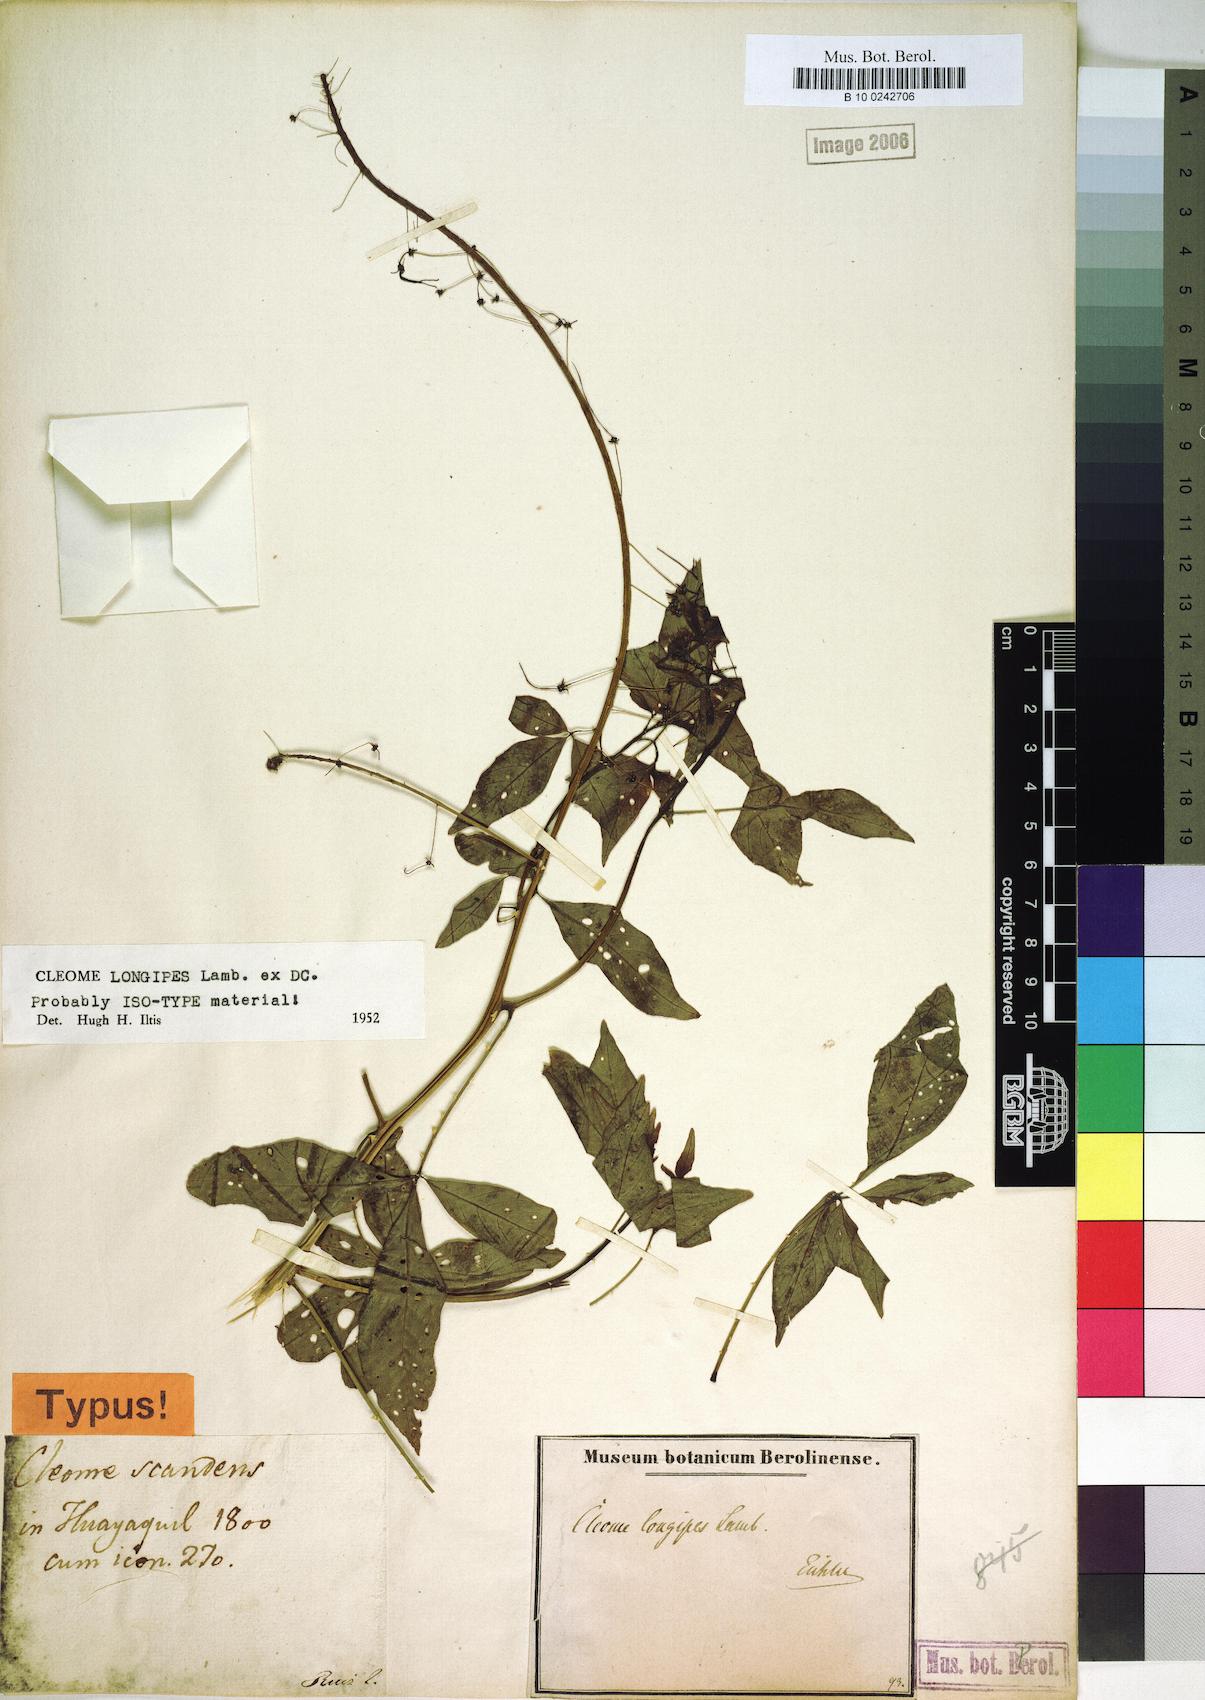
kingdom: Plantae
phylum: Tracheophyta
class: Magnoliopsida
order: Brassicales
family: Cleomaceae
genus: Tarenaya
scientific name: Tarenaya longipes
